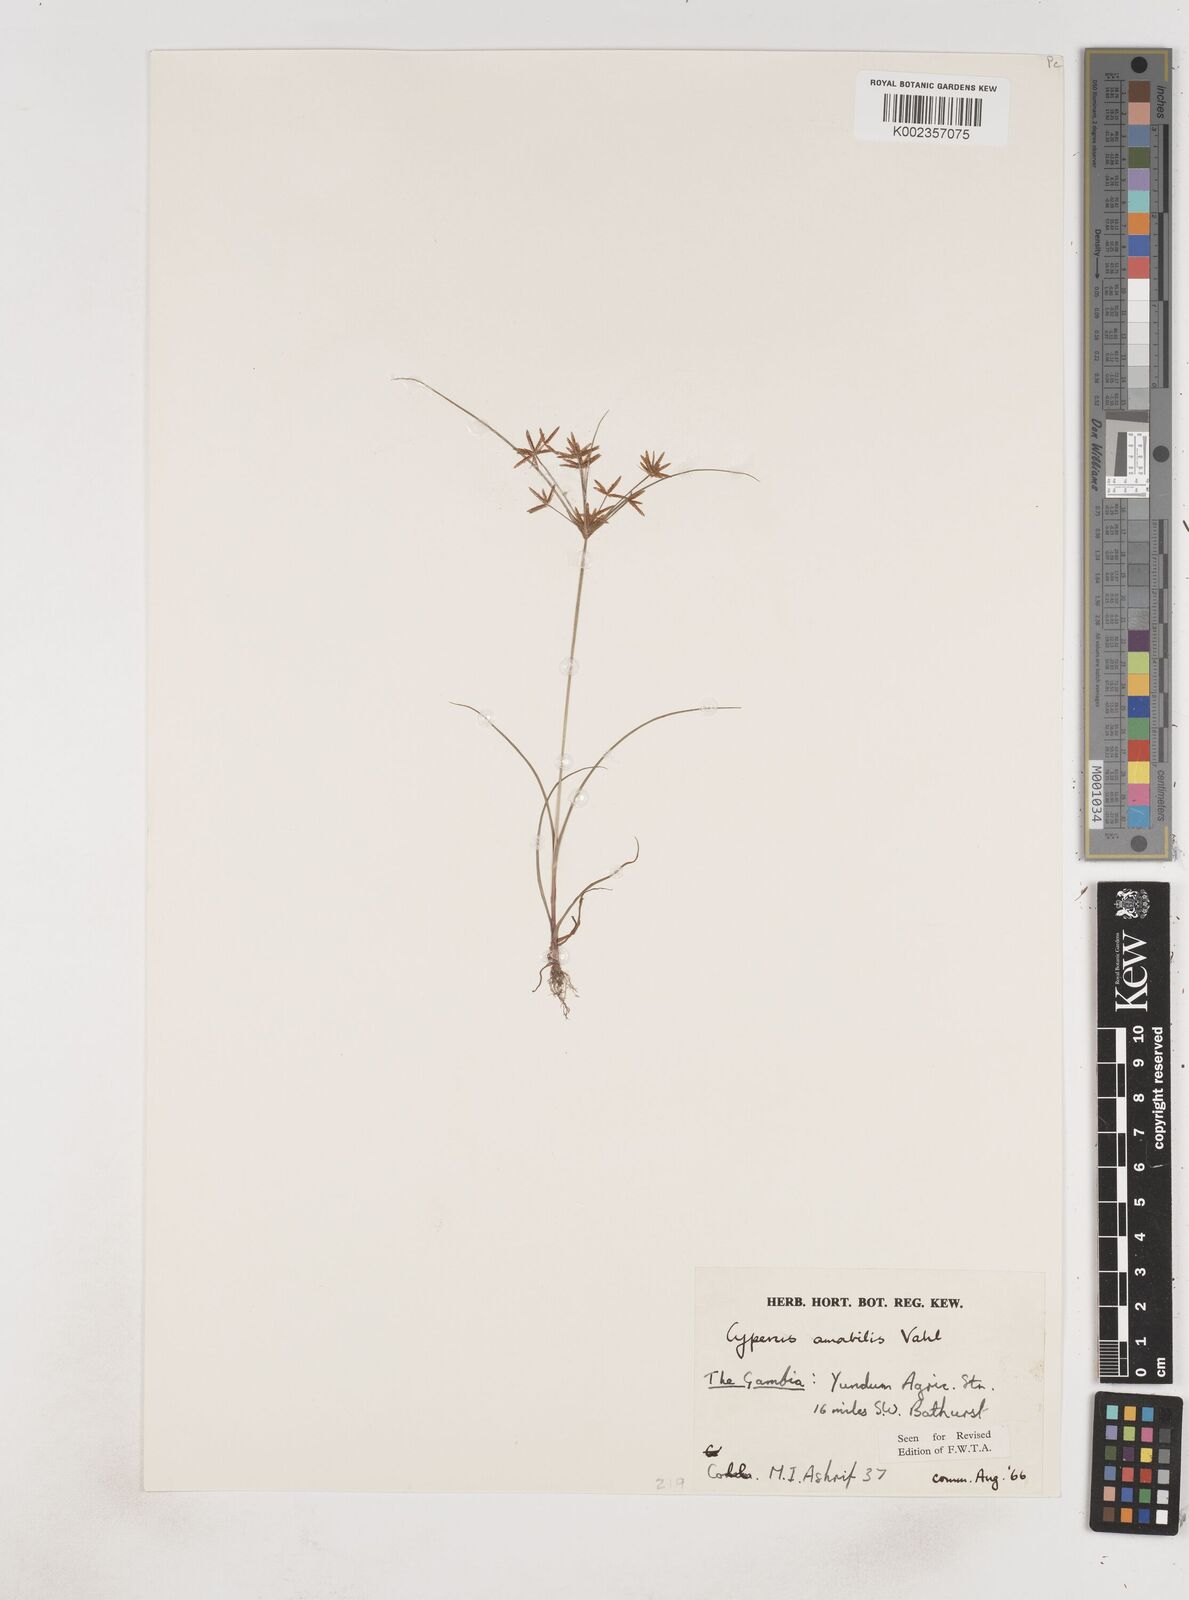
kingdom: Plantae
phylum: Tracheophyta
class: Liliopsida
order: Poales
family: Cyperaceae
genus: Cyperus
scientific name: Cyperus amabilis
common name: Foothill flat sedge
